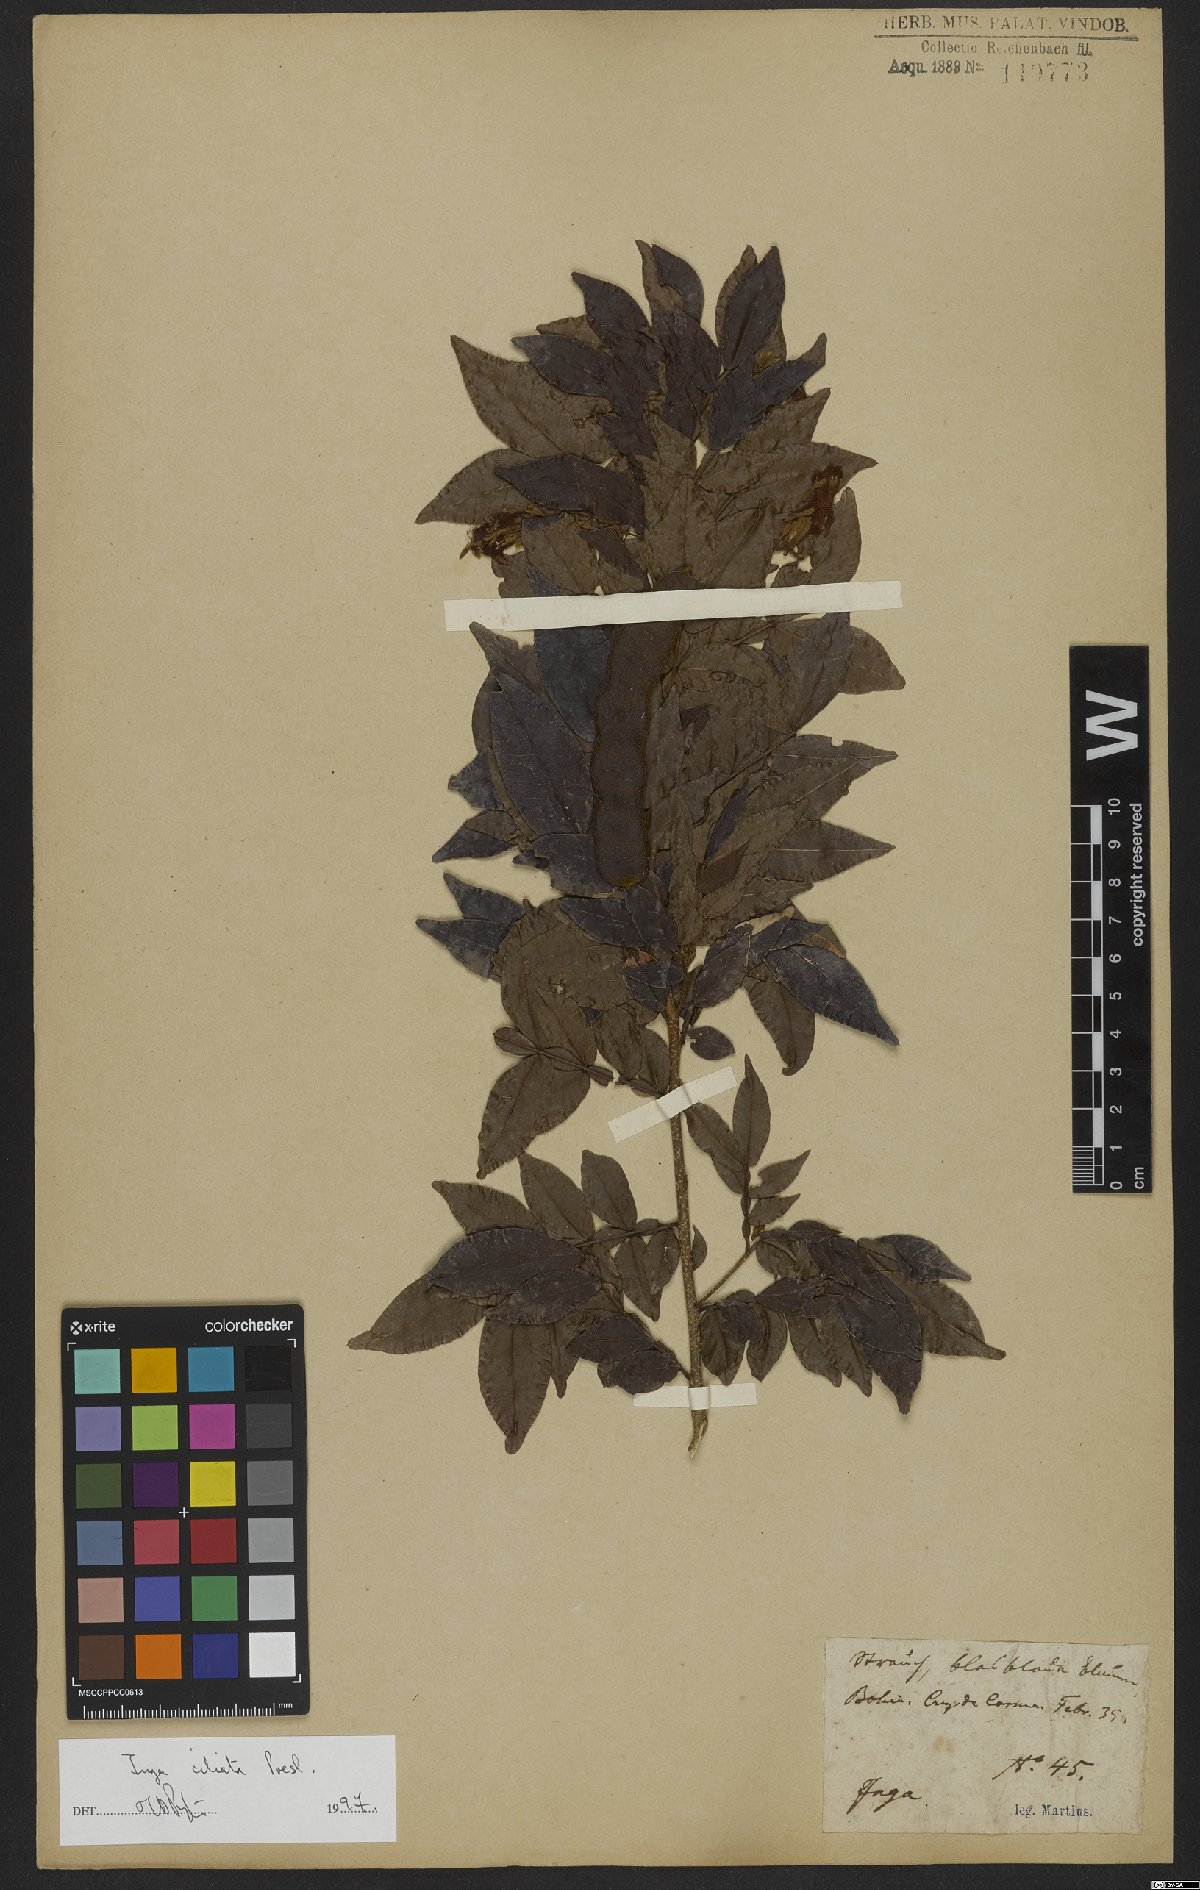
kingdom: Plantae
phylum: Tracheophyta
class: Magnoliopsida
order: Fabales
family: Fabaceae
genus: Inga
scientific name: Inga ciliata
